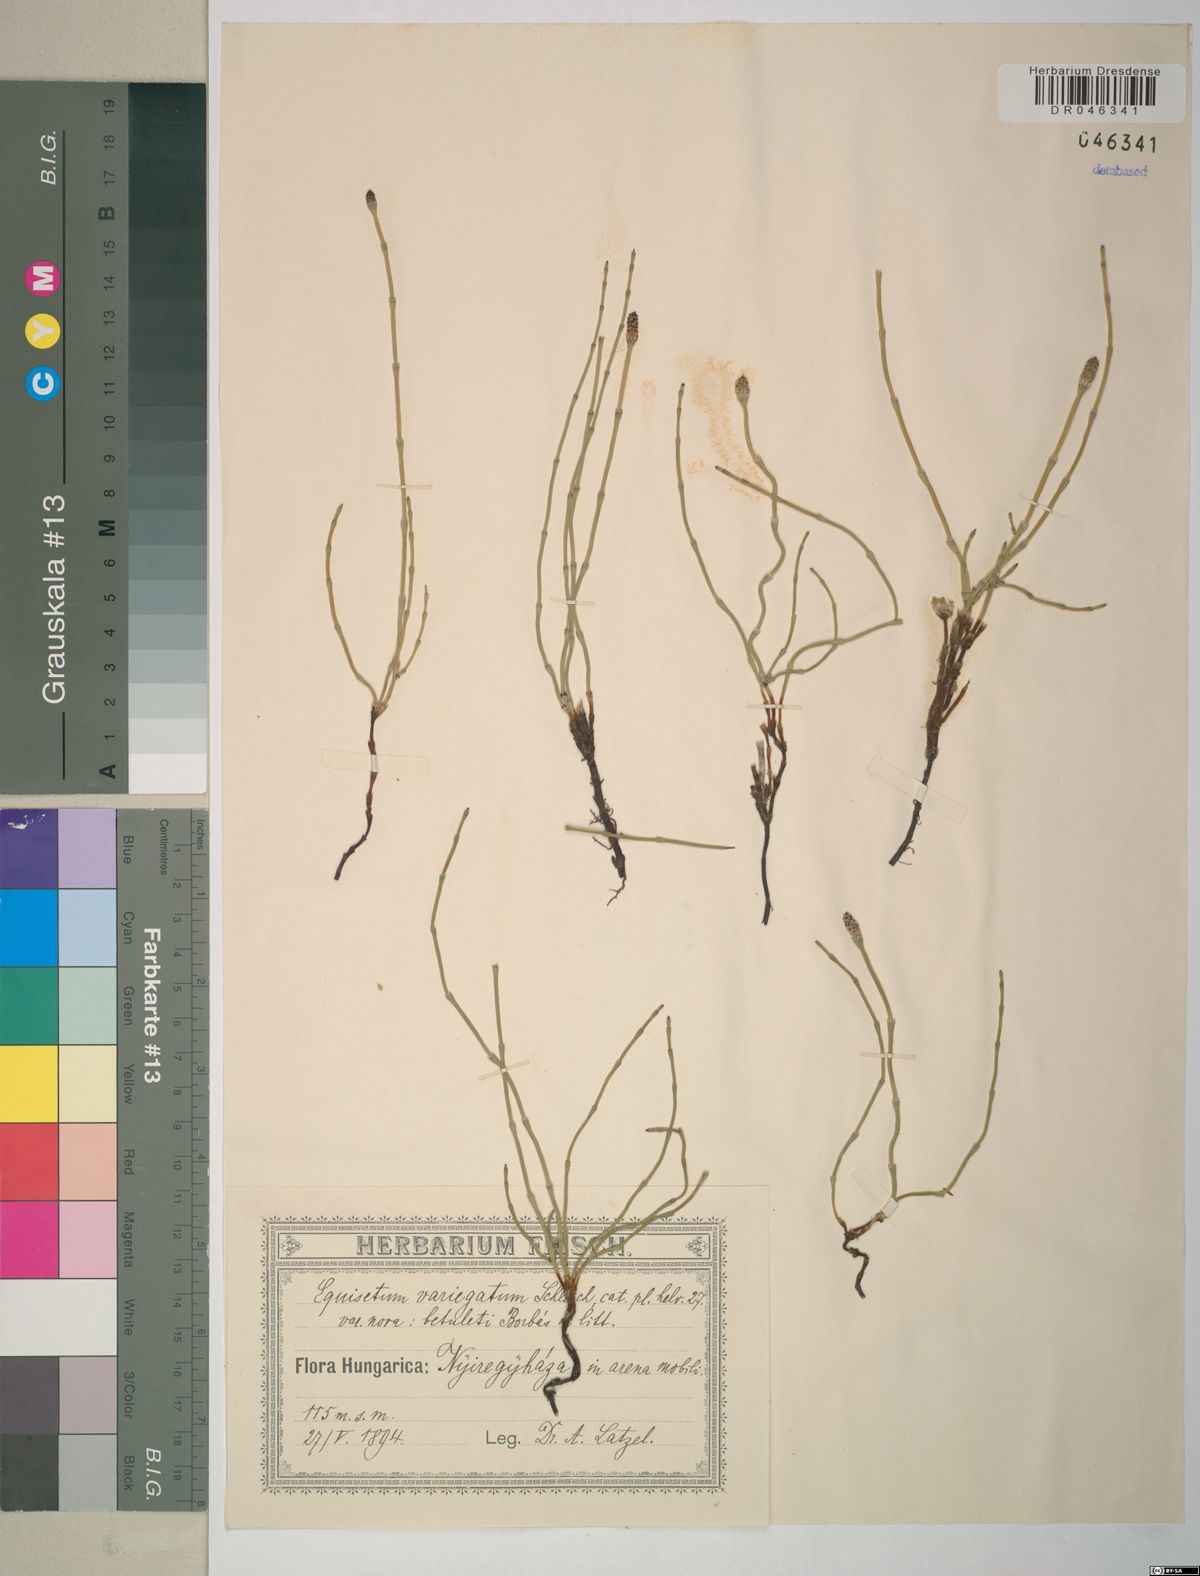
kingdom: Plantae
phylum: Tracheophyta
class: Polypodiopsida
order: Equisetales
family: Equisetaceae
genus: Equisetum
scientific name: Equisetum variegatum
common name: Variegated horsetail
